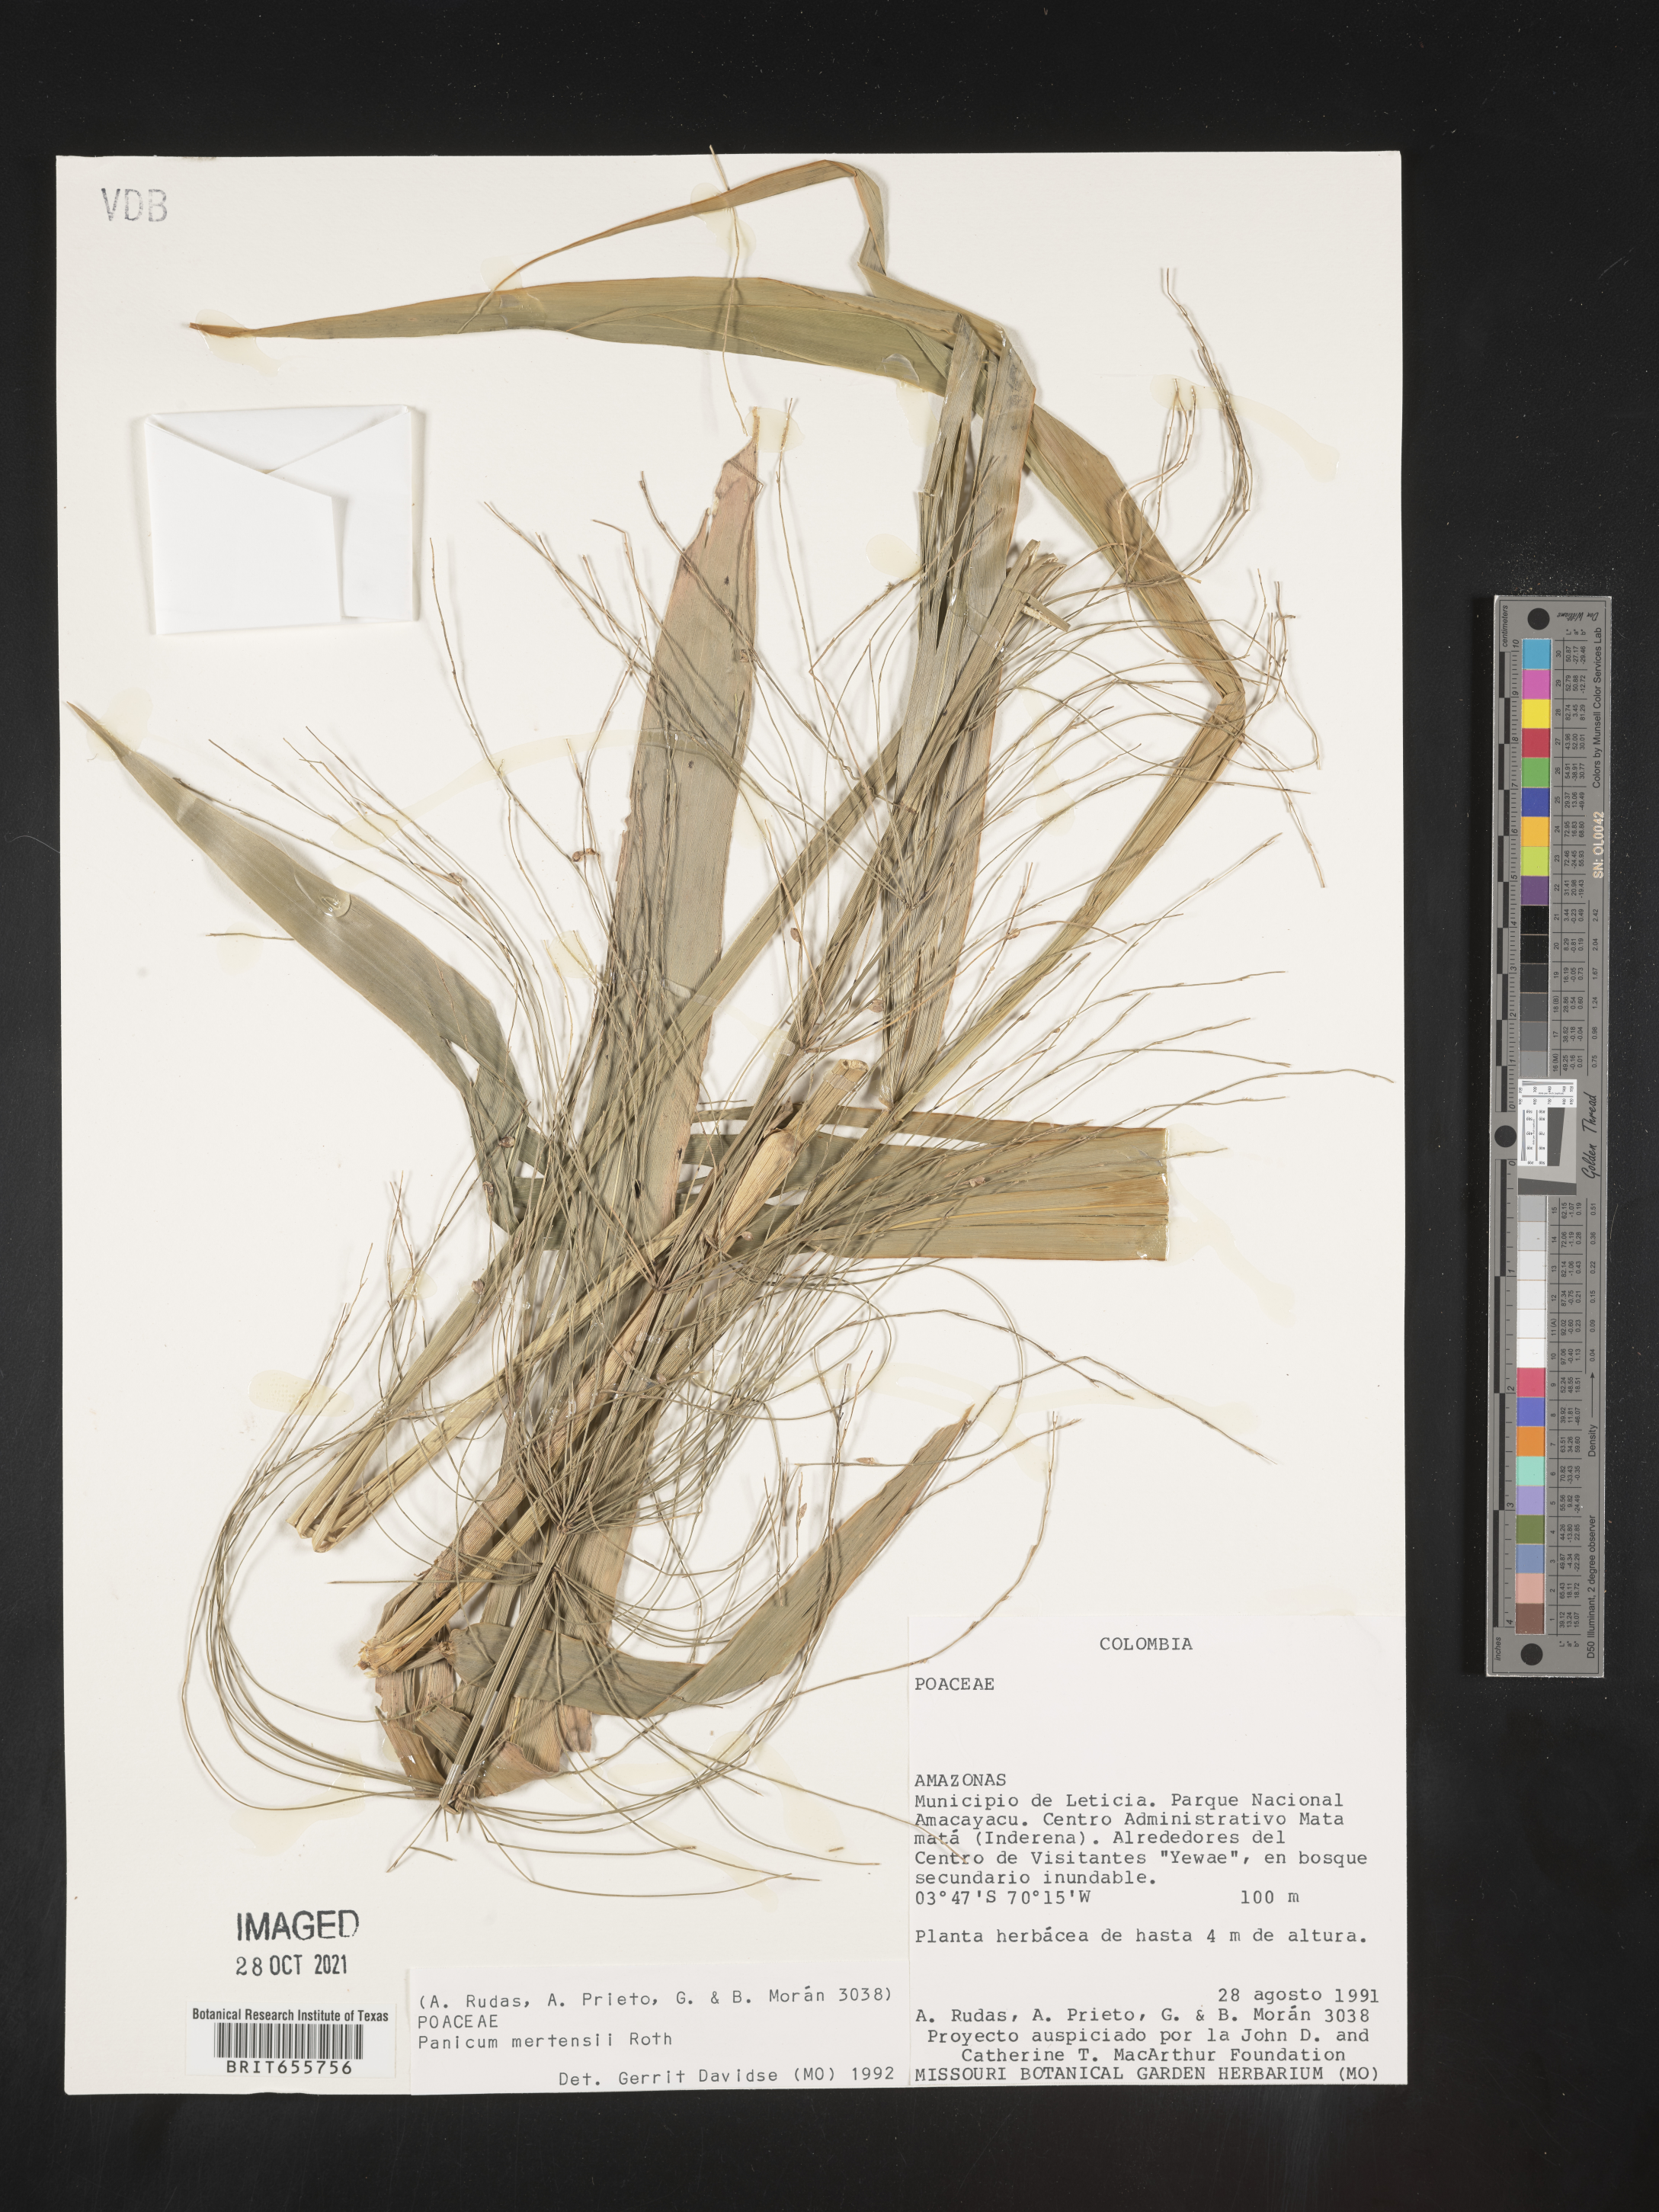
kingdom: Plantae
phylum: Tracheophyta
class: Liliopsida
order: Poales
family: Poaceae
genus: Panicum
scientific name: Panicum
